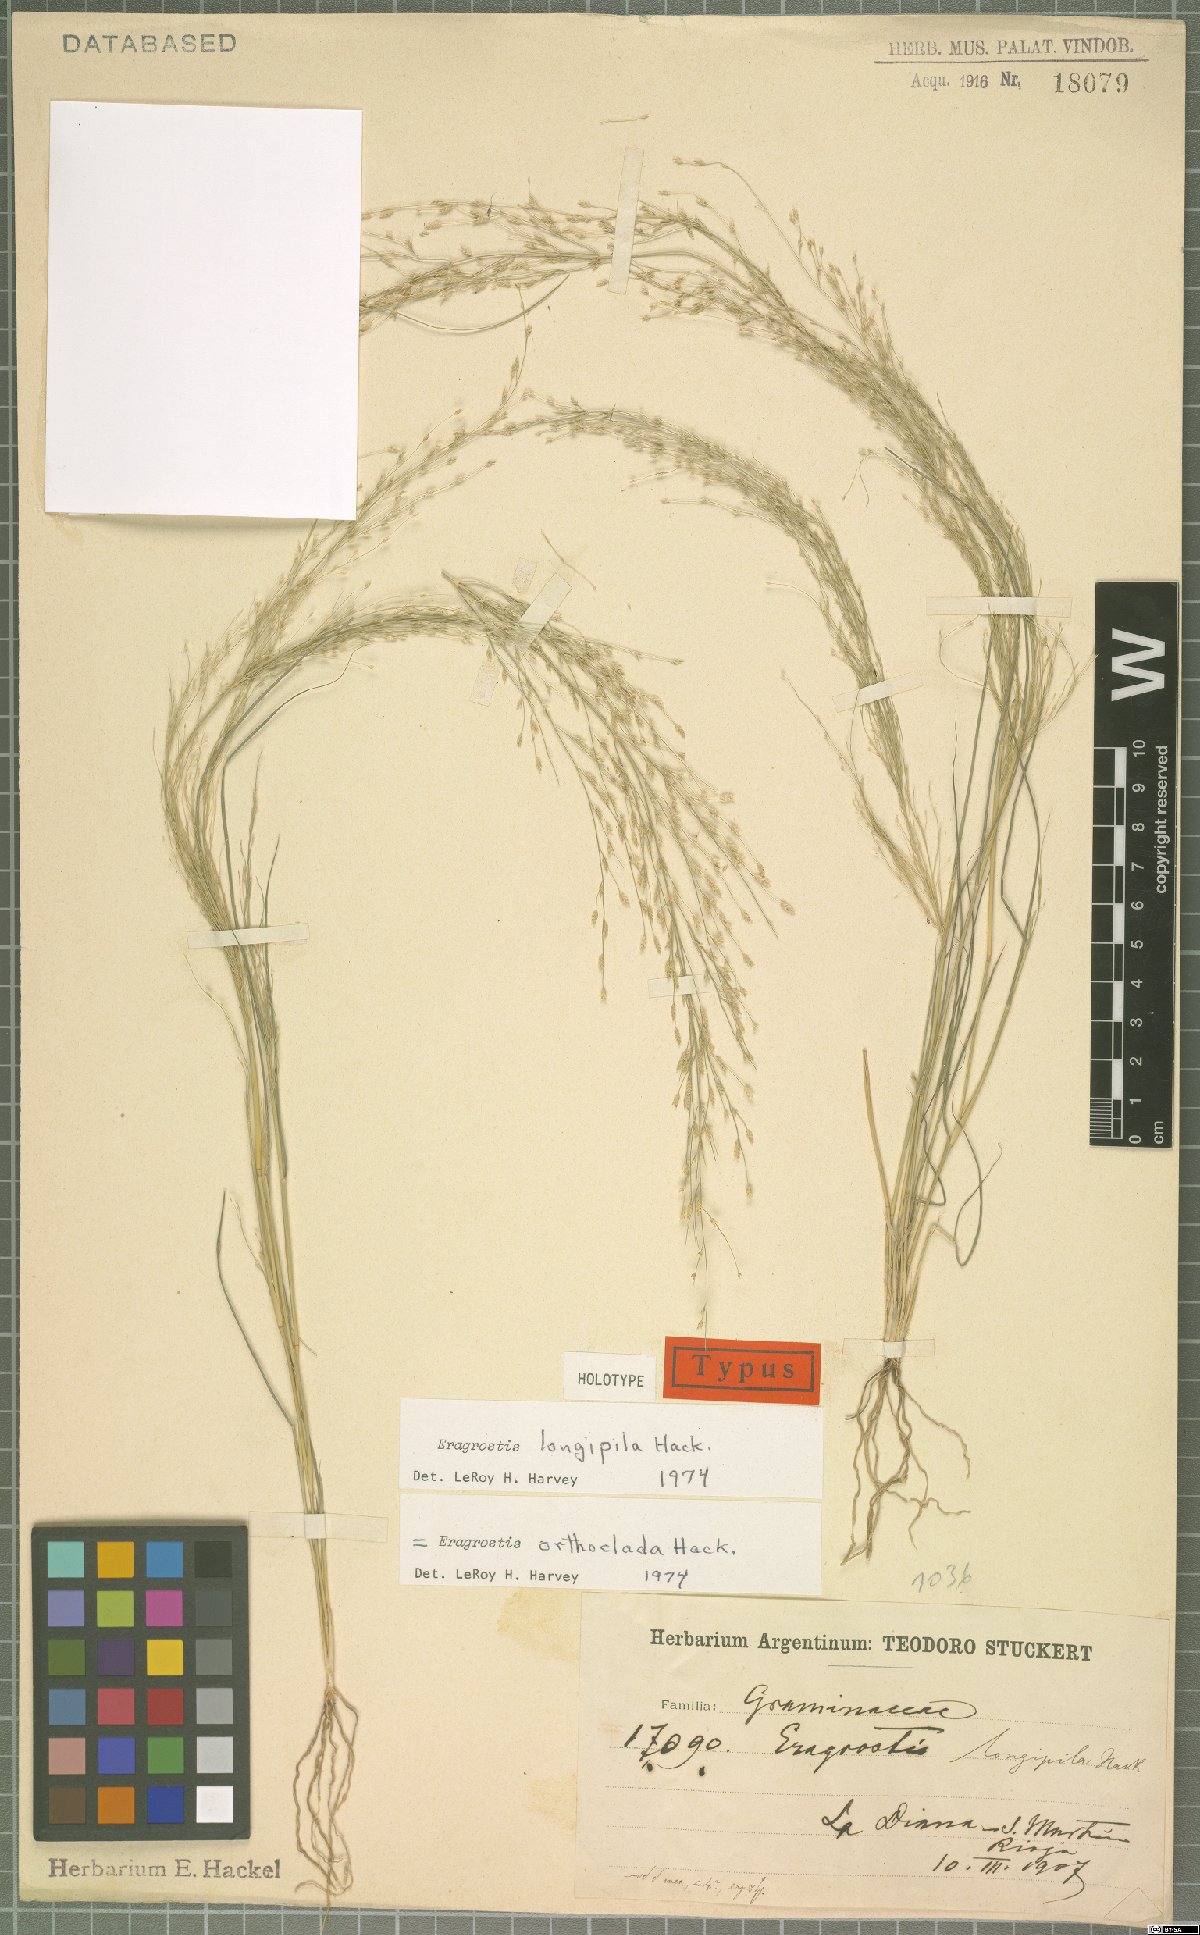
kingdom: Plantae
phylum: Tracheophyta
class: Liliopsida
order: Poales
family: Poaceae
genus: Eragrostis
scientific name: Eragrostis orthoclada
